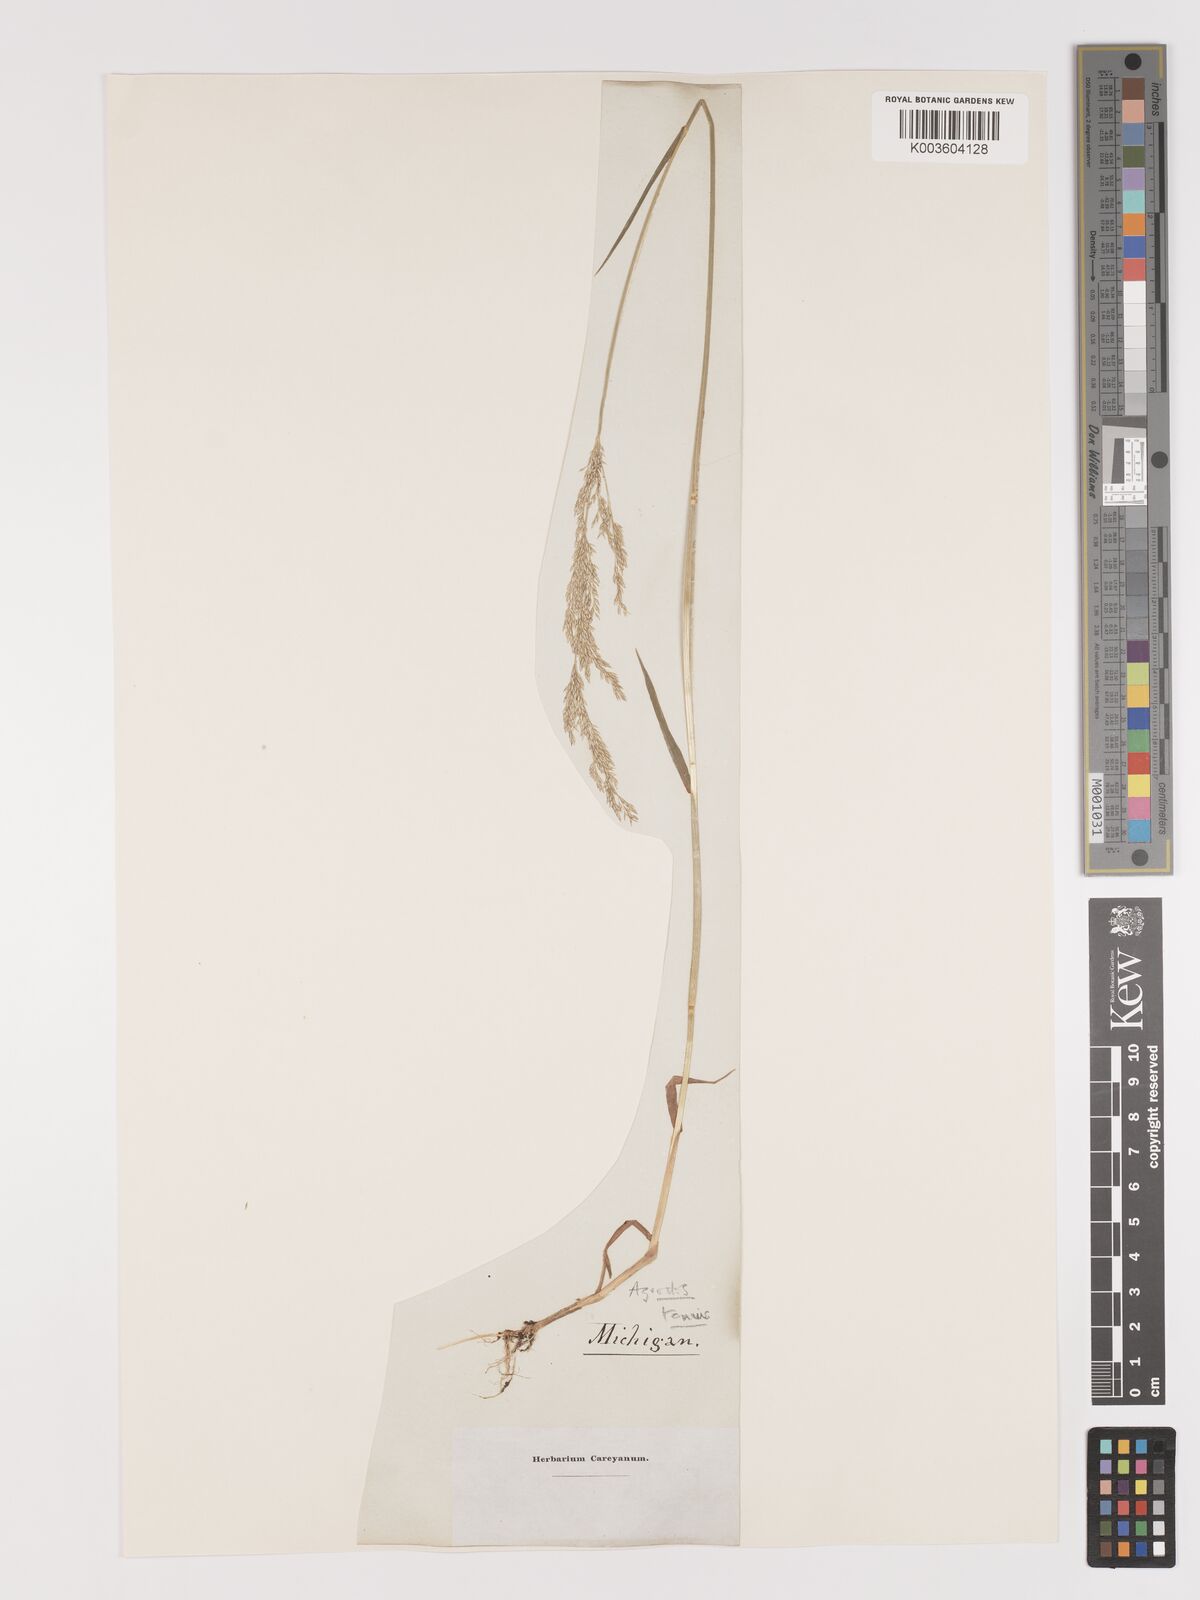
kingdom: Plantae
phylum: Tracheophyta
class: Liliopsida
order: Poales
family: Poaceae
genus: Agrostis
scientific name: Agrostis capillaris
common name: Colonial bentgrass
